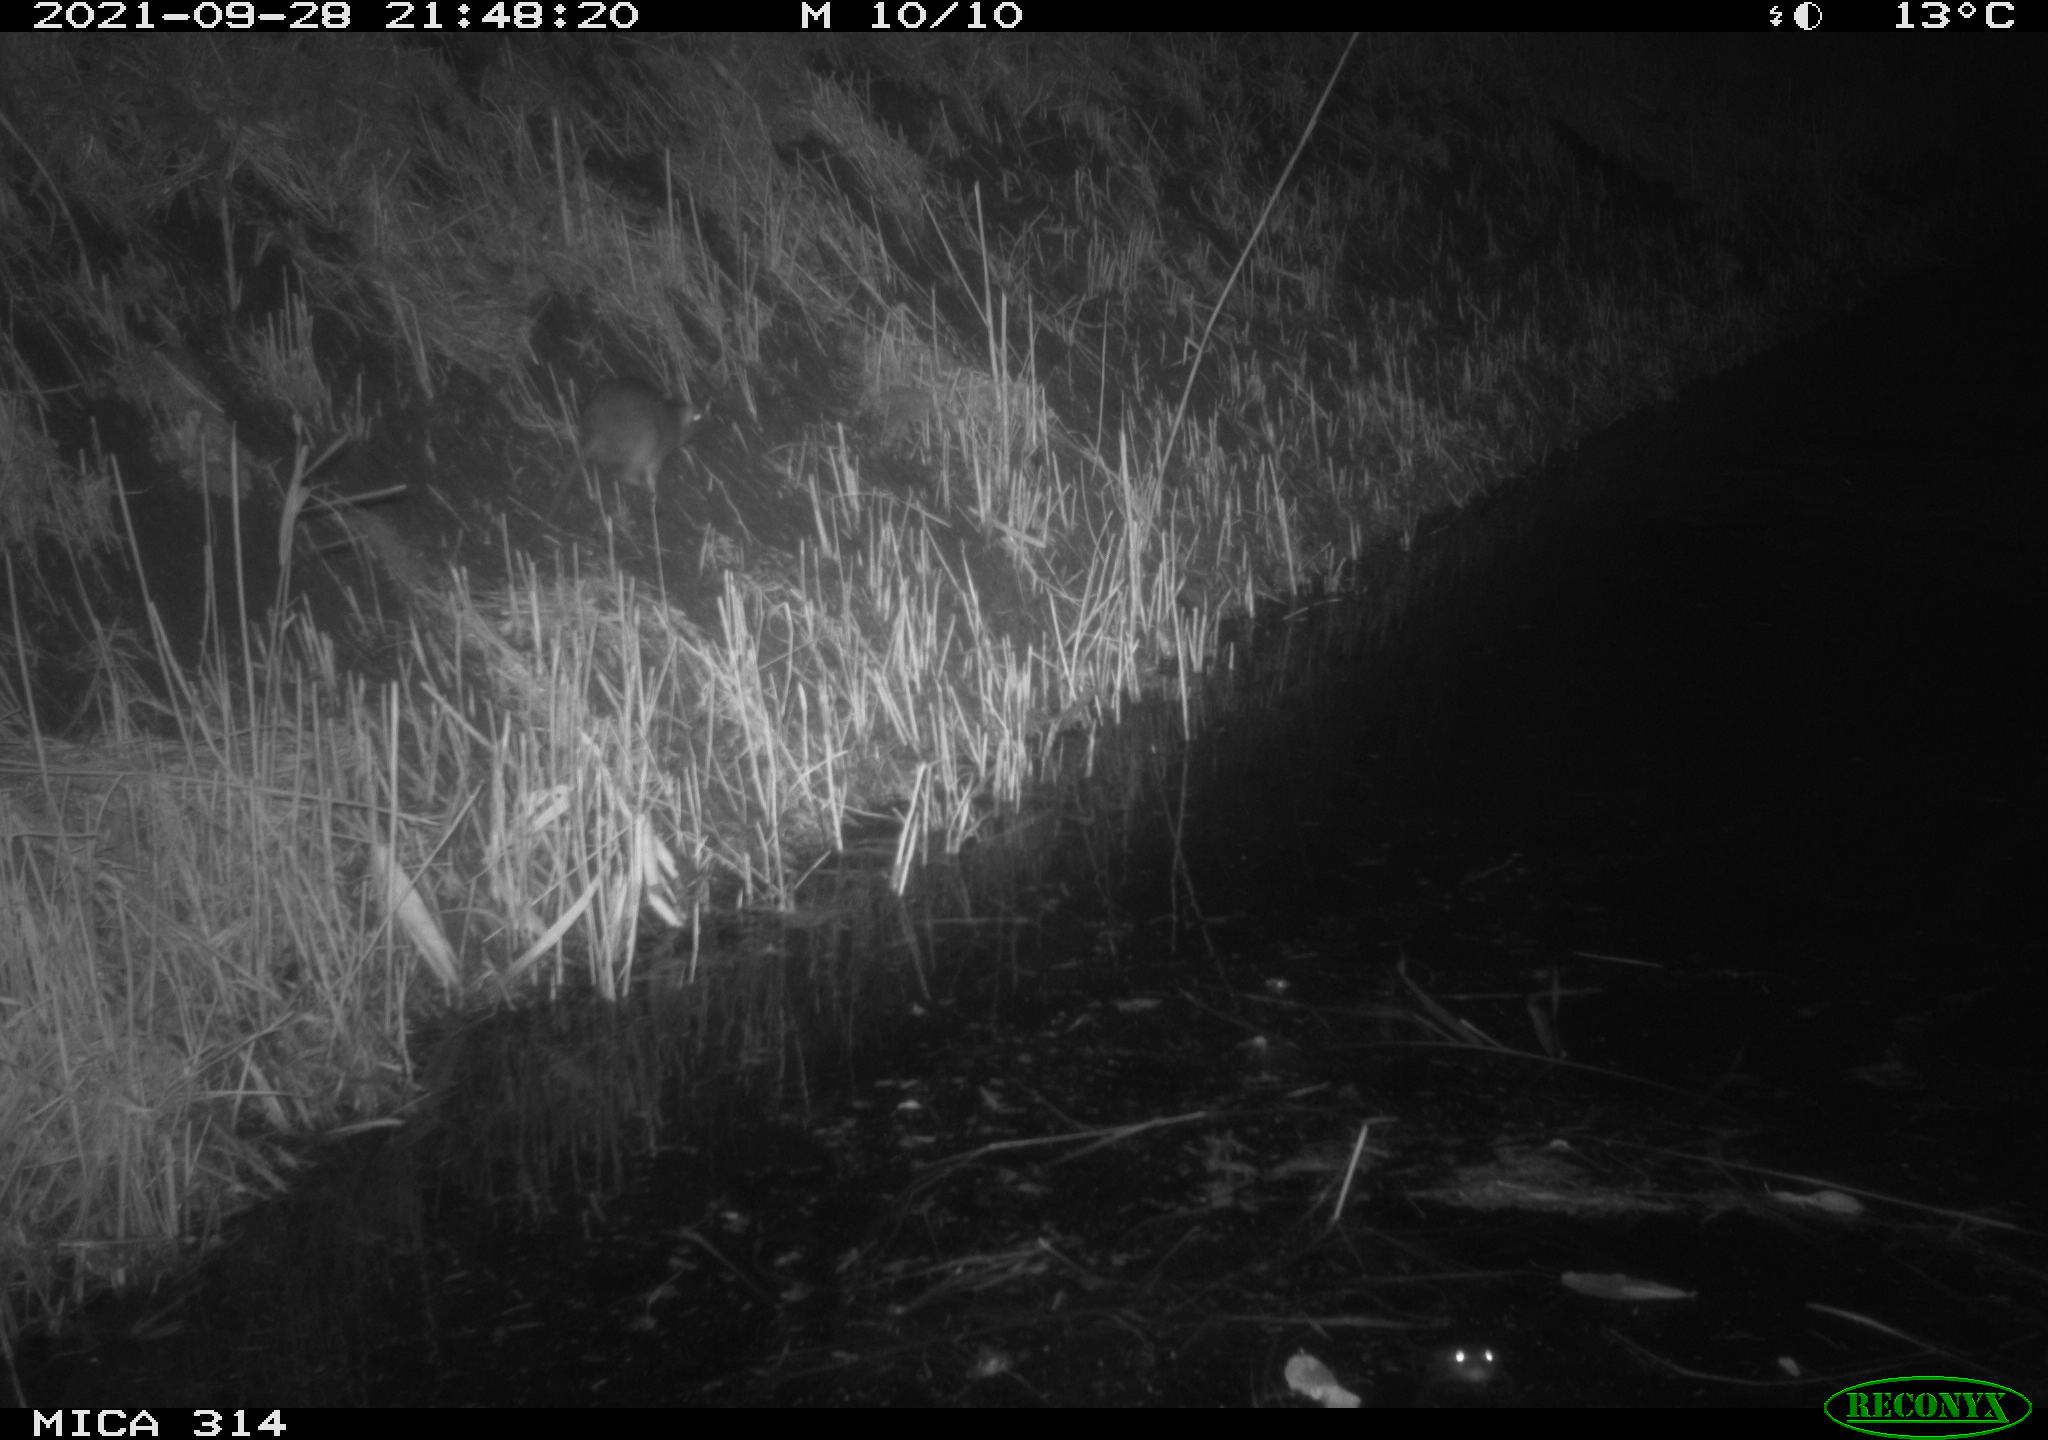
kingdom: Animalia
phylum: Chordata
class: Mammalia
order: Rodentia
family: Muridae
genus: Rattus
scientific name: Rattus norvegicus
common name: Brown rat
